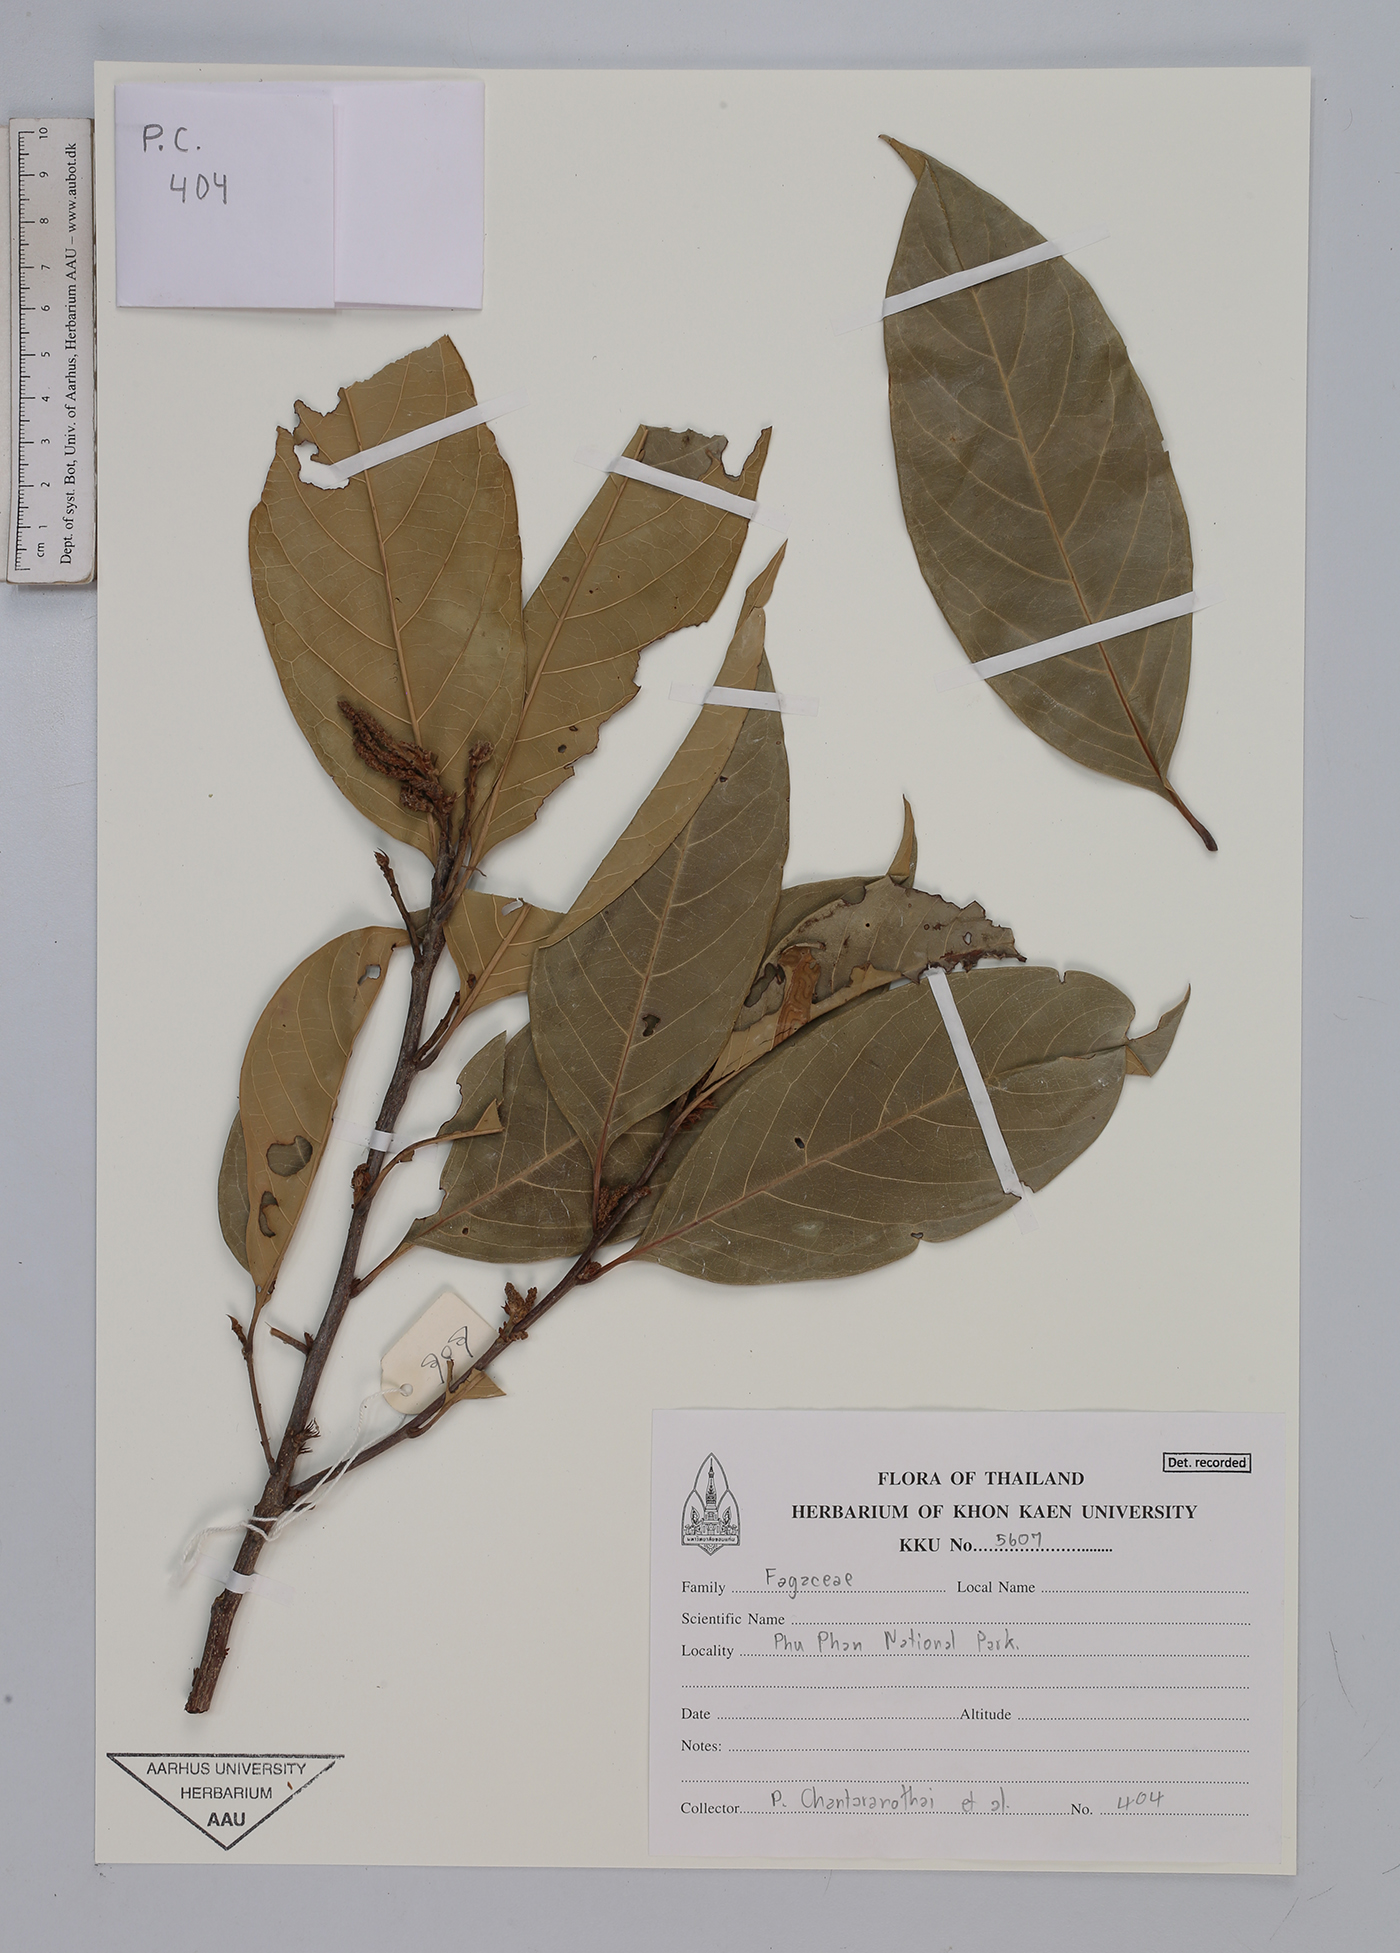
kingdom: Plantae
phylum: Tracheophyta
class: Magnoliopsida
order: Fagales
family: Fagaceae
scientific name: Fagaceae
